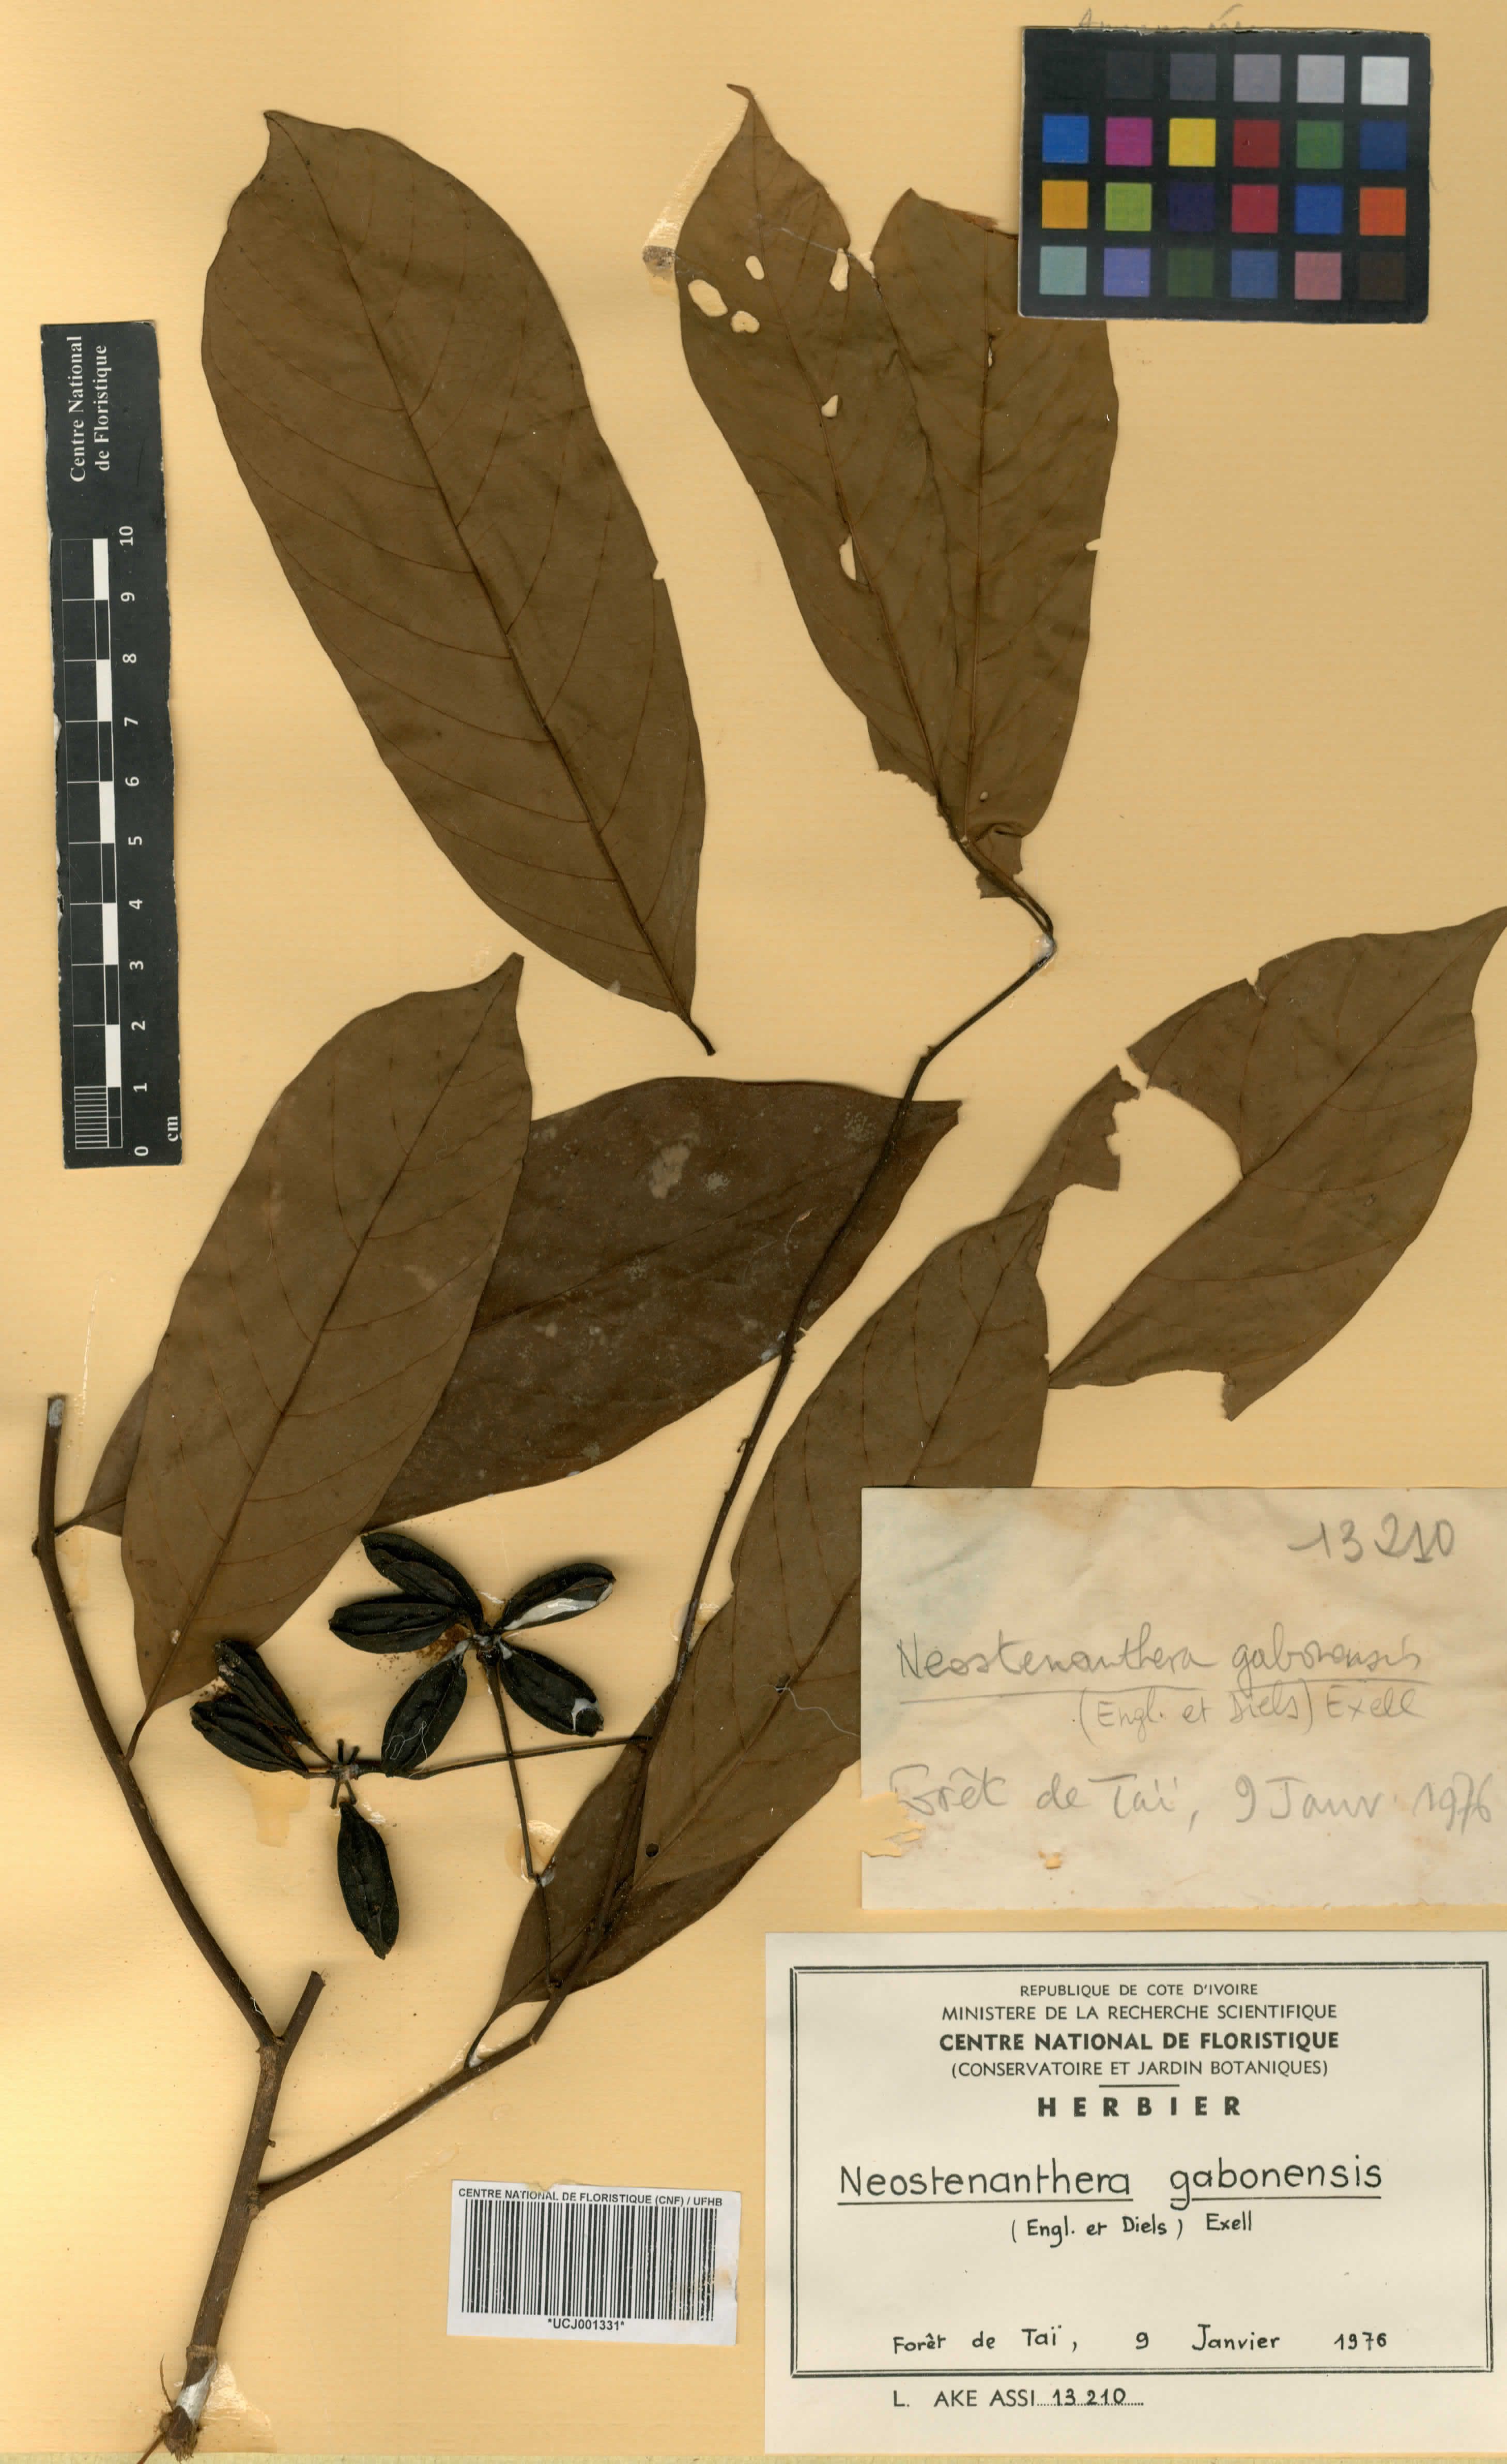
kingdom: Plantae
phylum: Tracheophyta
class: Magnoliopsida
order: Magnoliales
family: Annonaceae
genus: Neostenanthera
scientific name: Neostenanthera gabonensis
